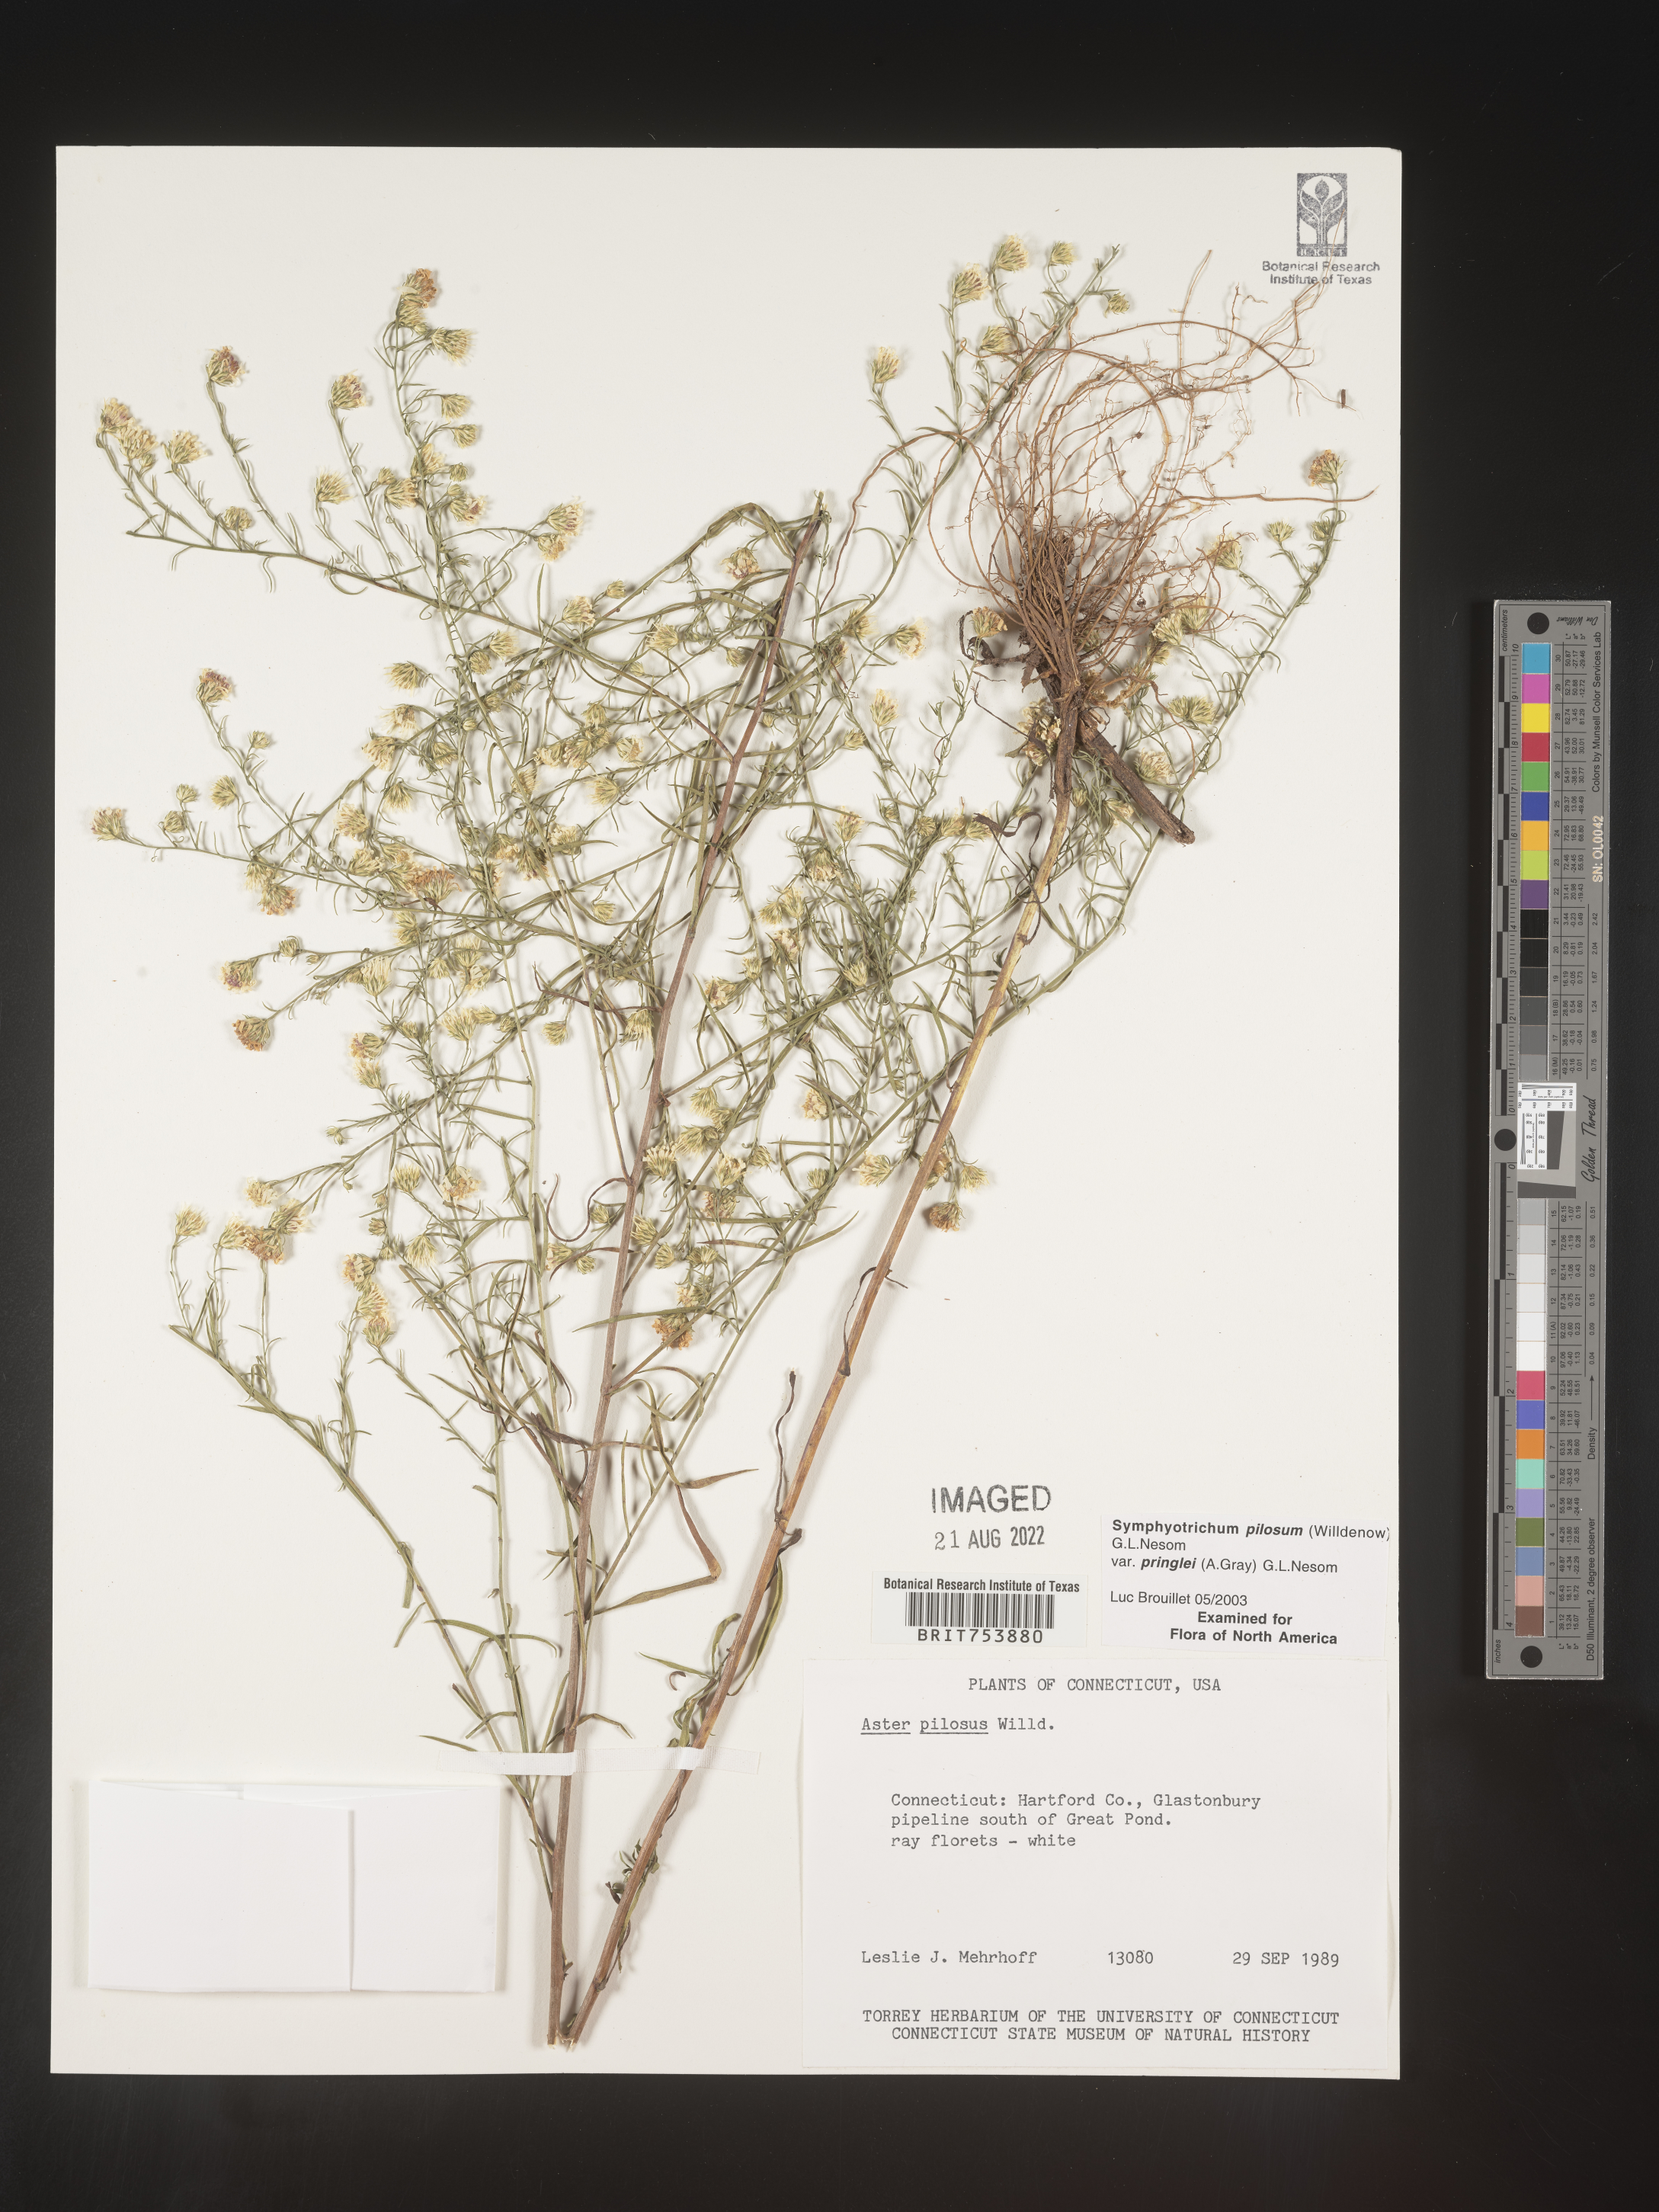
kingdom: Plantae
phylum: Tracheophyta
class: Magnoliopsida
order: Asterales
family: Asteraceae
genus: Symphyotrichum
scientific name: Symphyotrichum pilosum
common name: Awl aster
